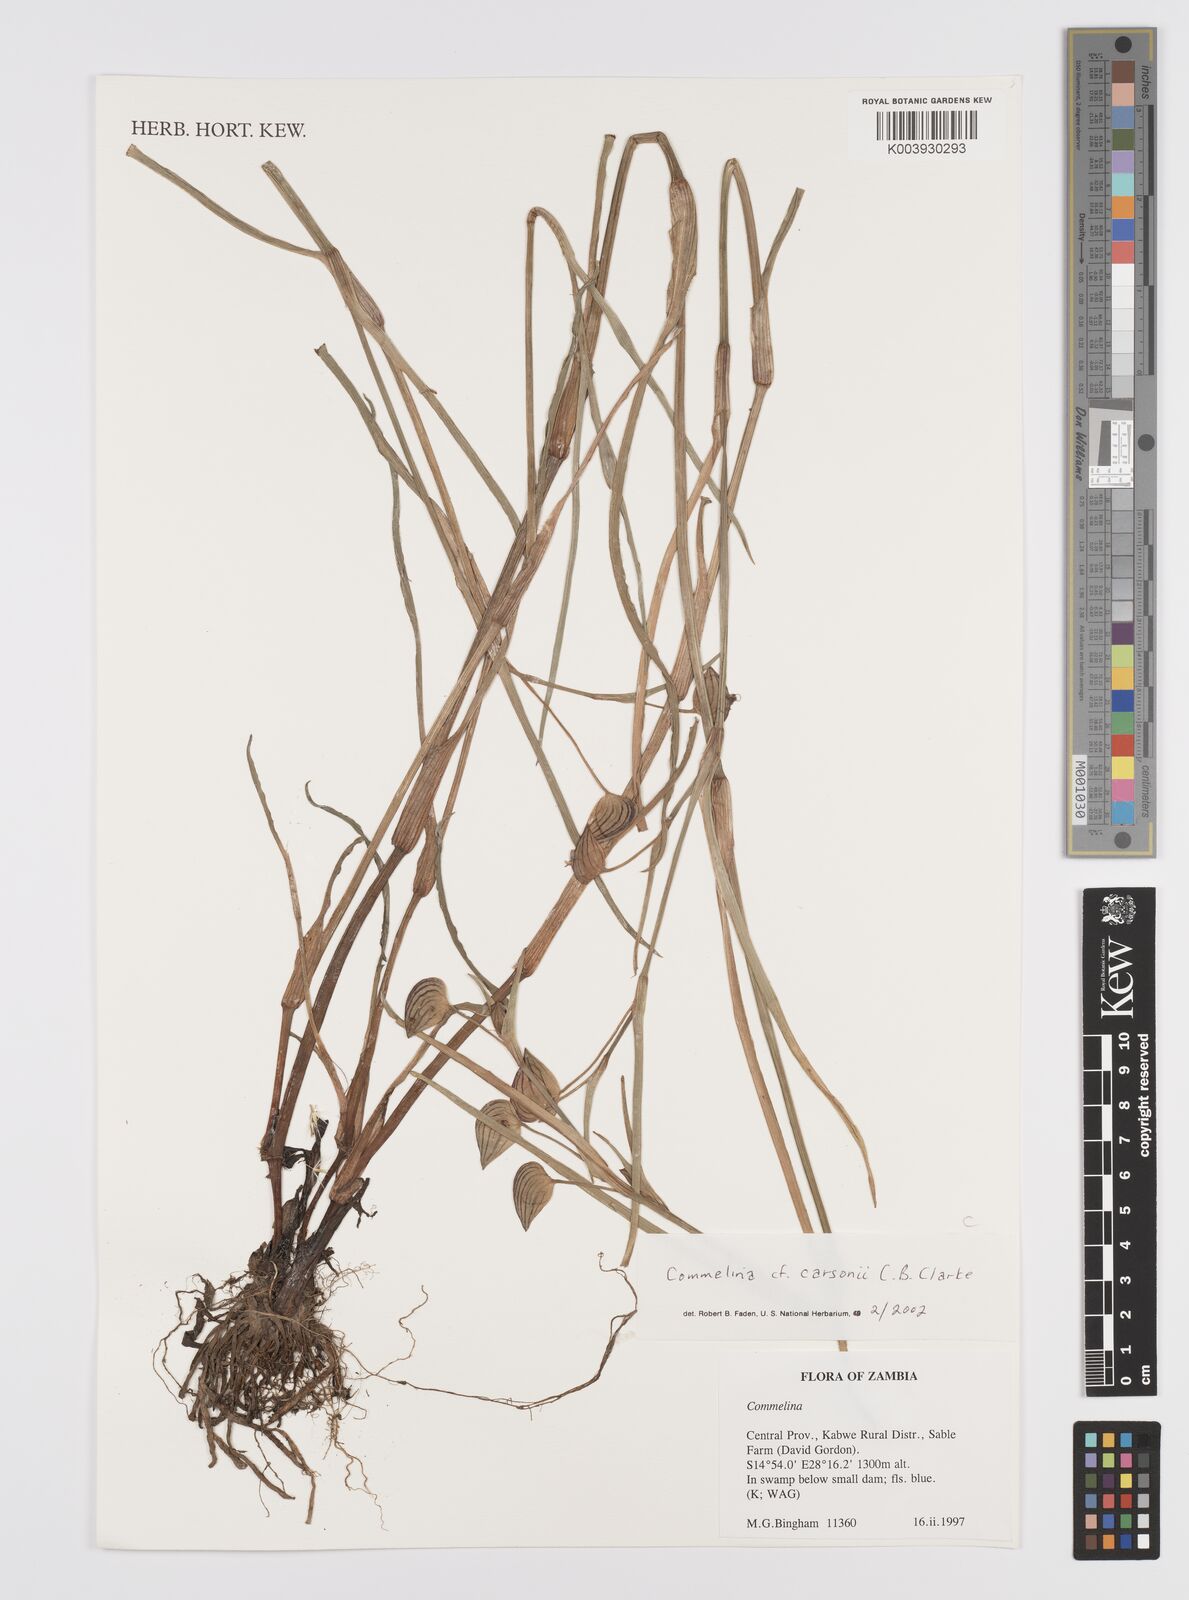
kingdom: Plantae
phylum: Tracheophyta
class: Liliopsida
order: Commelinales
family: Commelinaceae
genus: Commelina
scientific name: Commelina schweinfurthii
